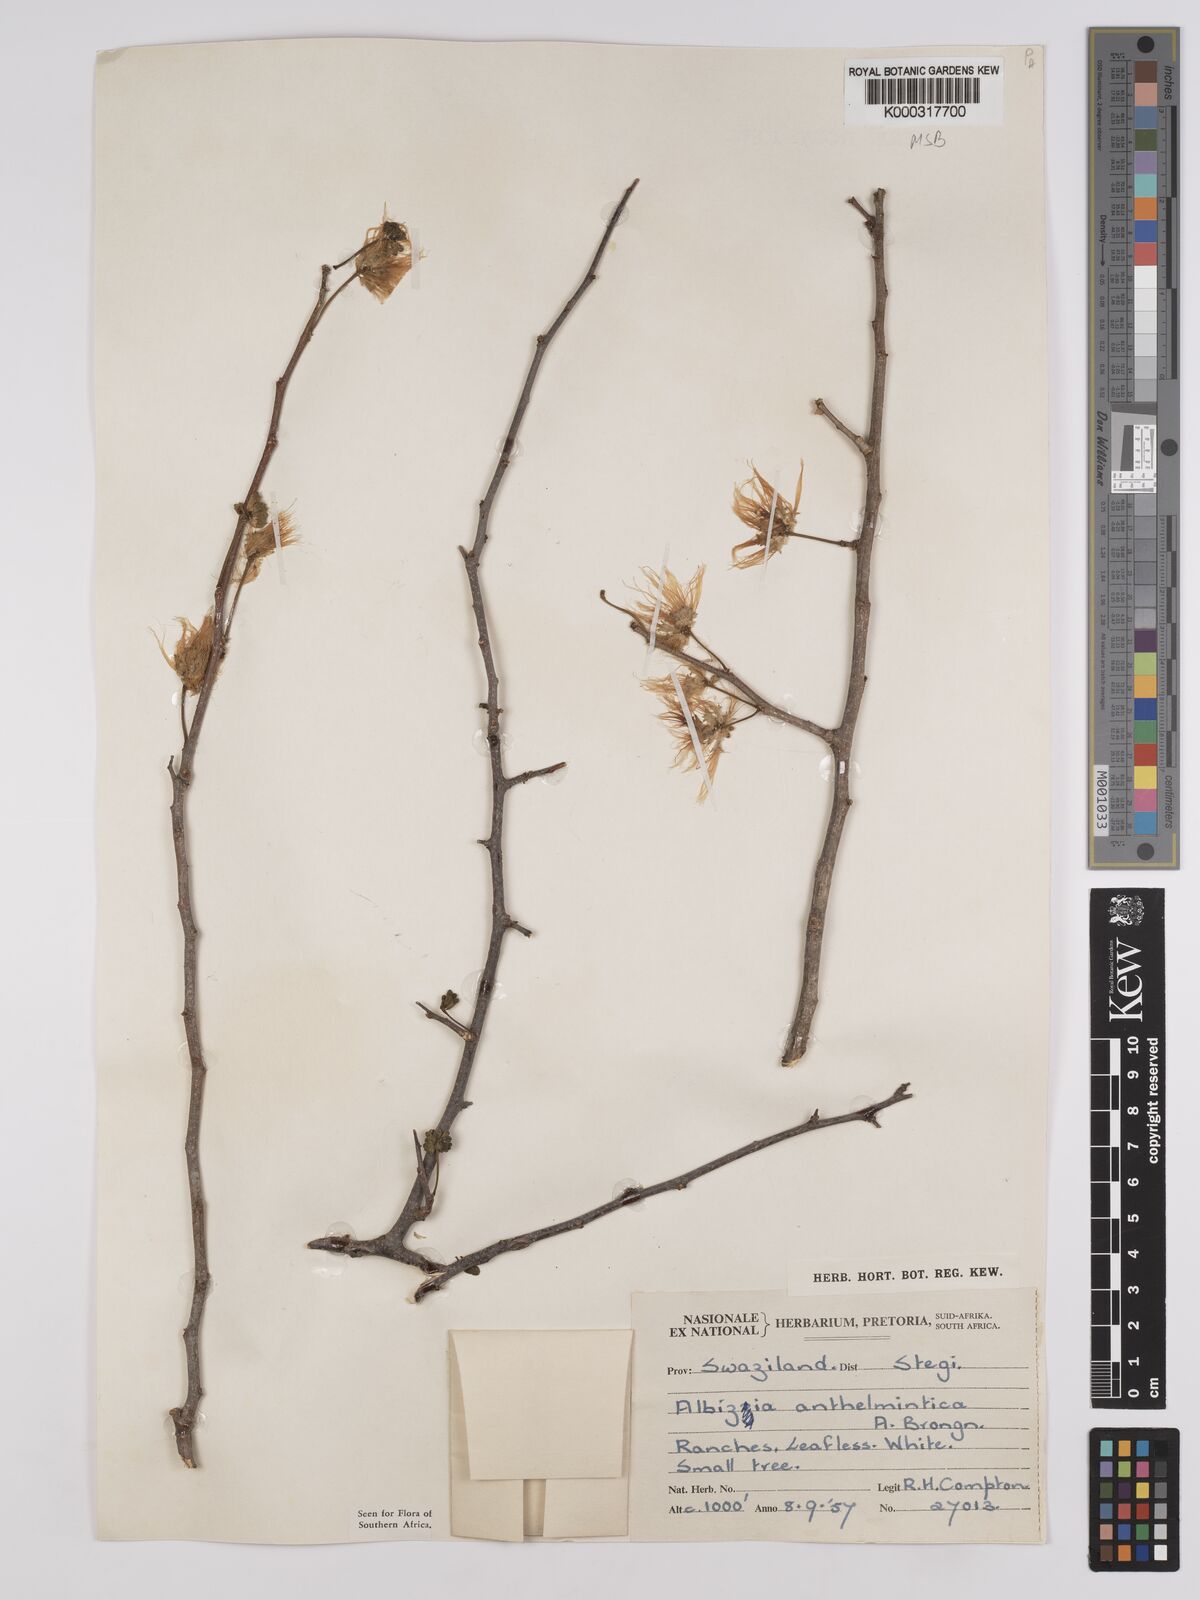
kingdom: Plantae
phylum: Tracheophyta
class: Magnoliopsida
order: Fabales
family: Fabaceae
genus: Albizia
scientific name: Albizia anthelmintica
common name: Worm-bark false-thorn
